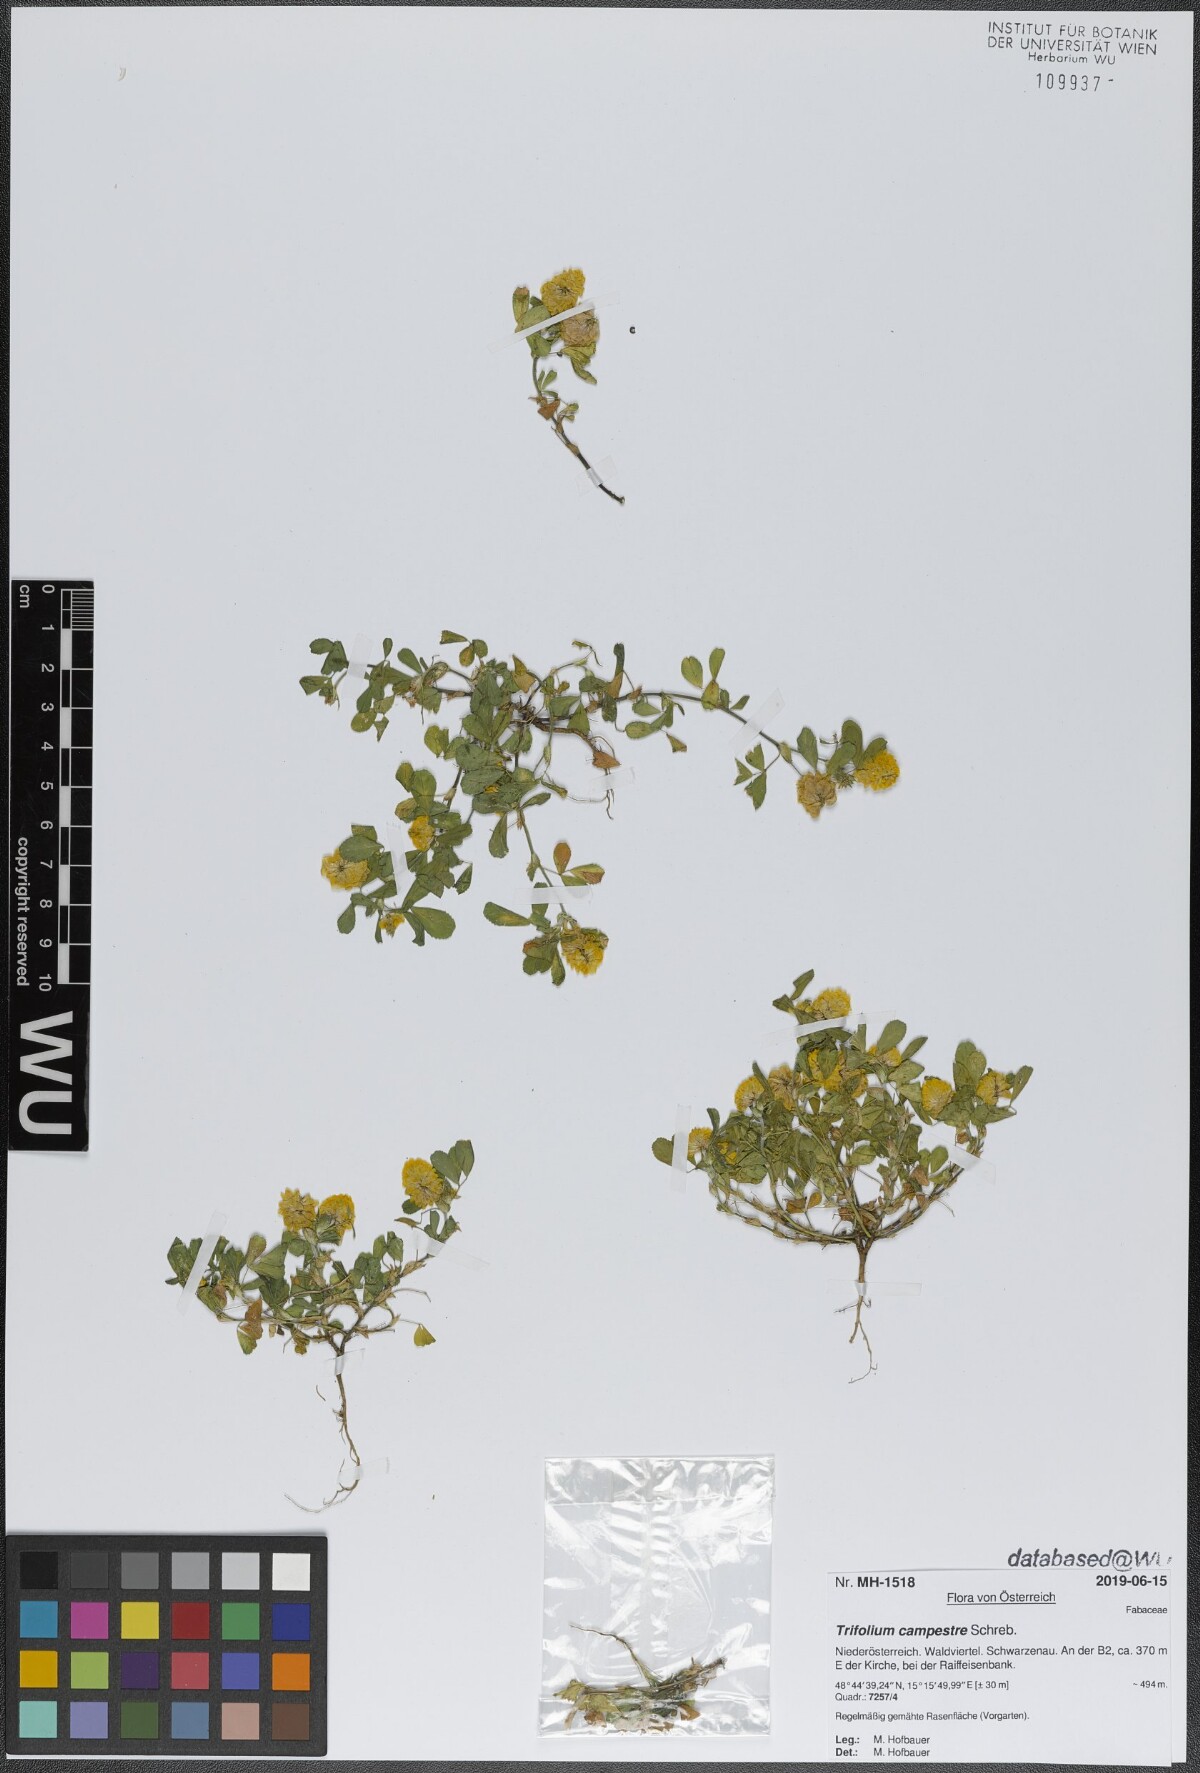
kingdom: Plantae
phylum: Tracheophyta
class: Magnoliopsida
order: Fabales
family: Fabaceae
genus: Trifolium
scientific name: Trifolium campestre
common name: Field clover
